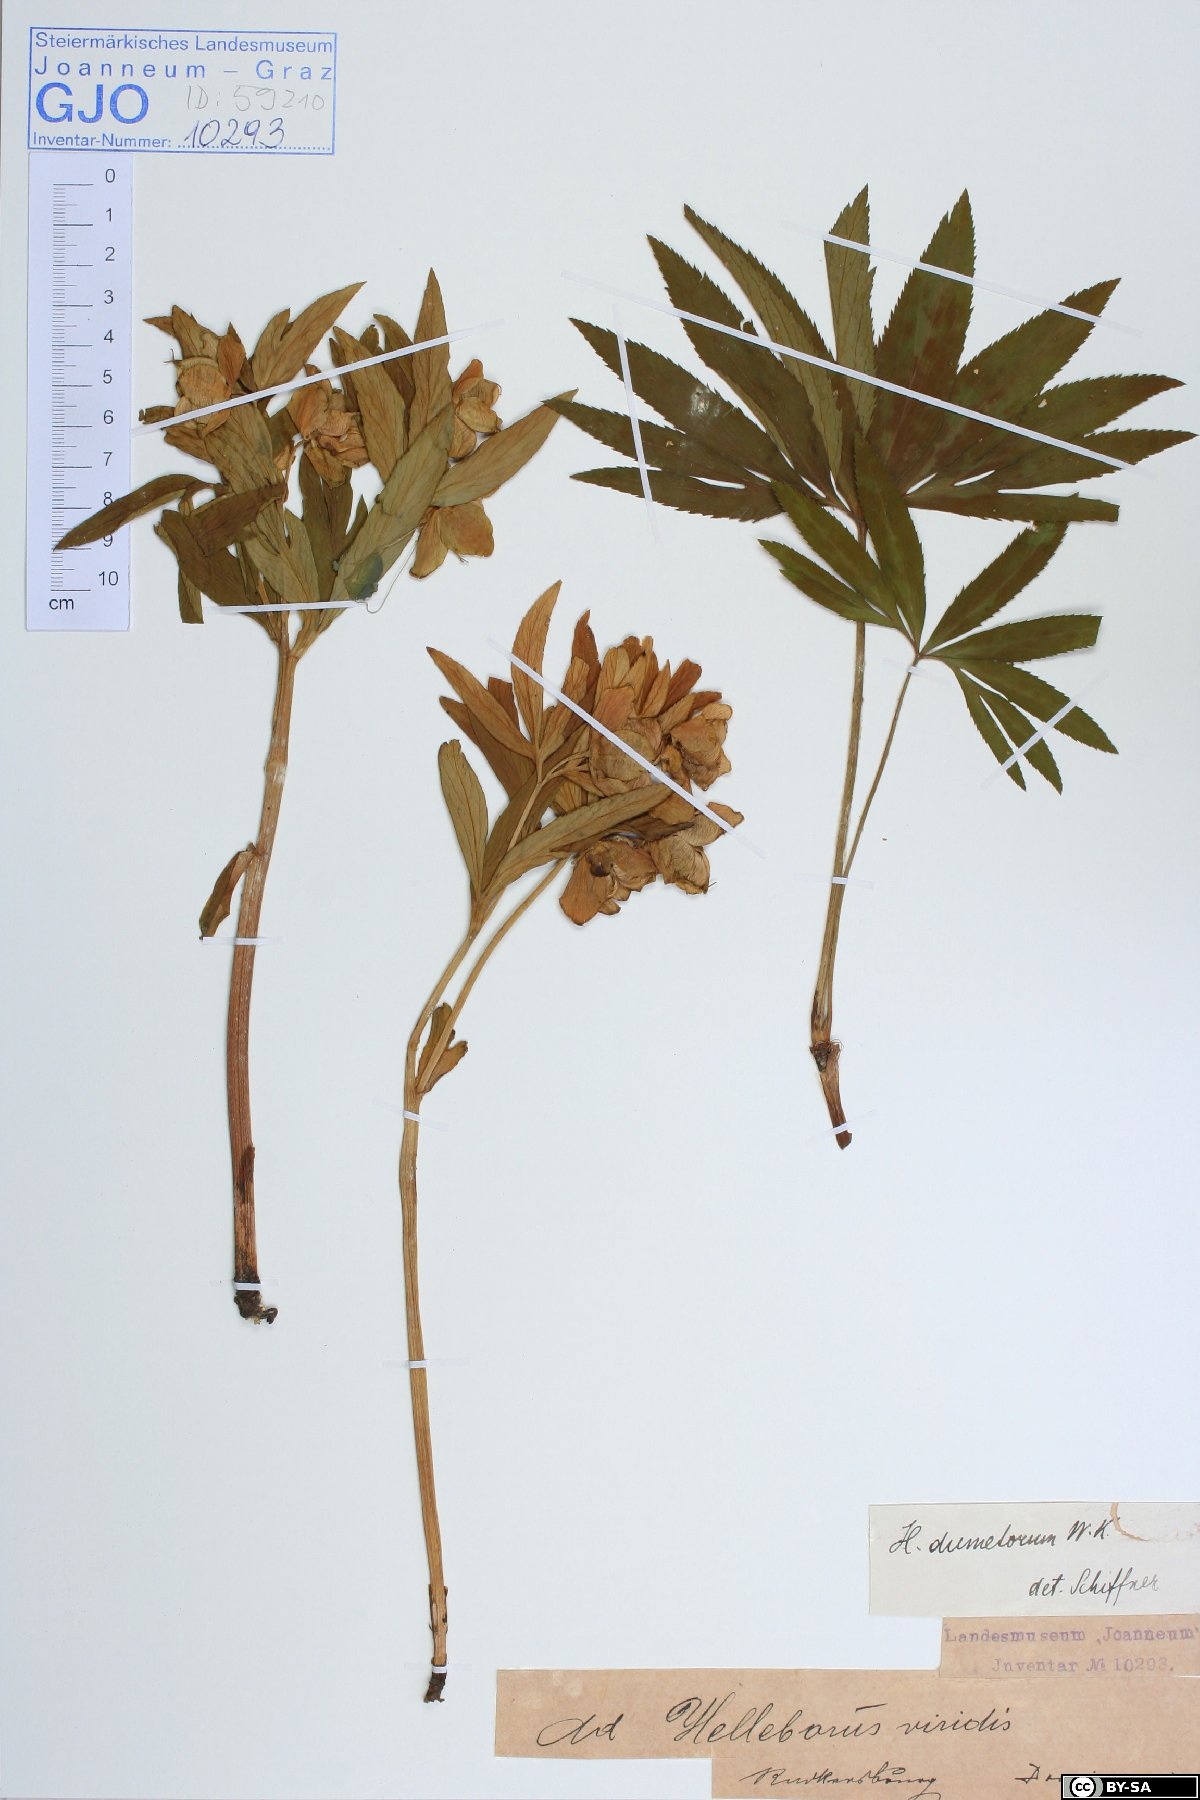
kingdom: Plantae
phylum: Tracheophyta
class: Magnoliopsida
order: Ranunculales
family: Ranunculaceae
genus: Helleborus
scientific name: Helleborus dumetorum
